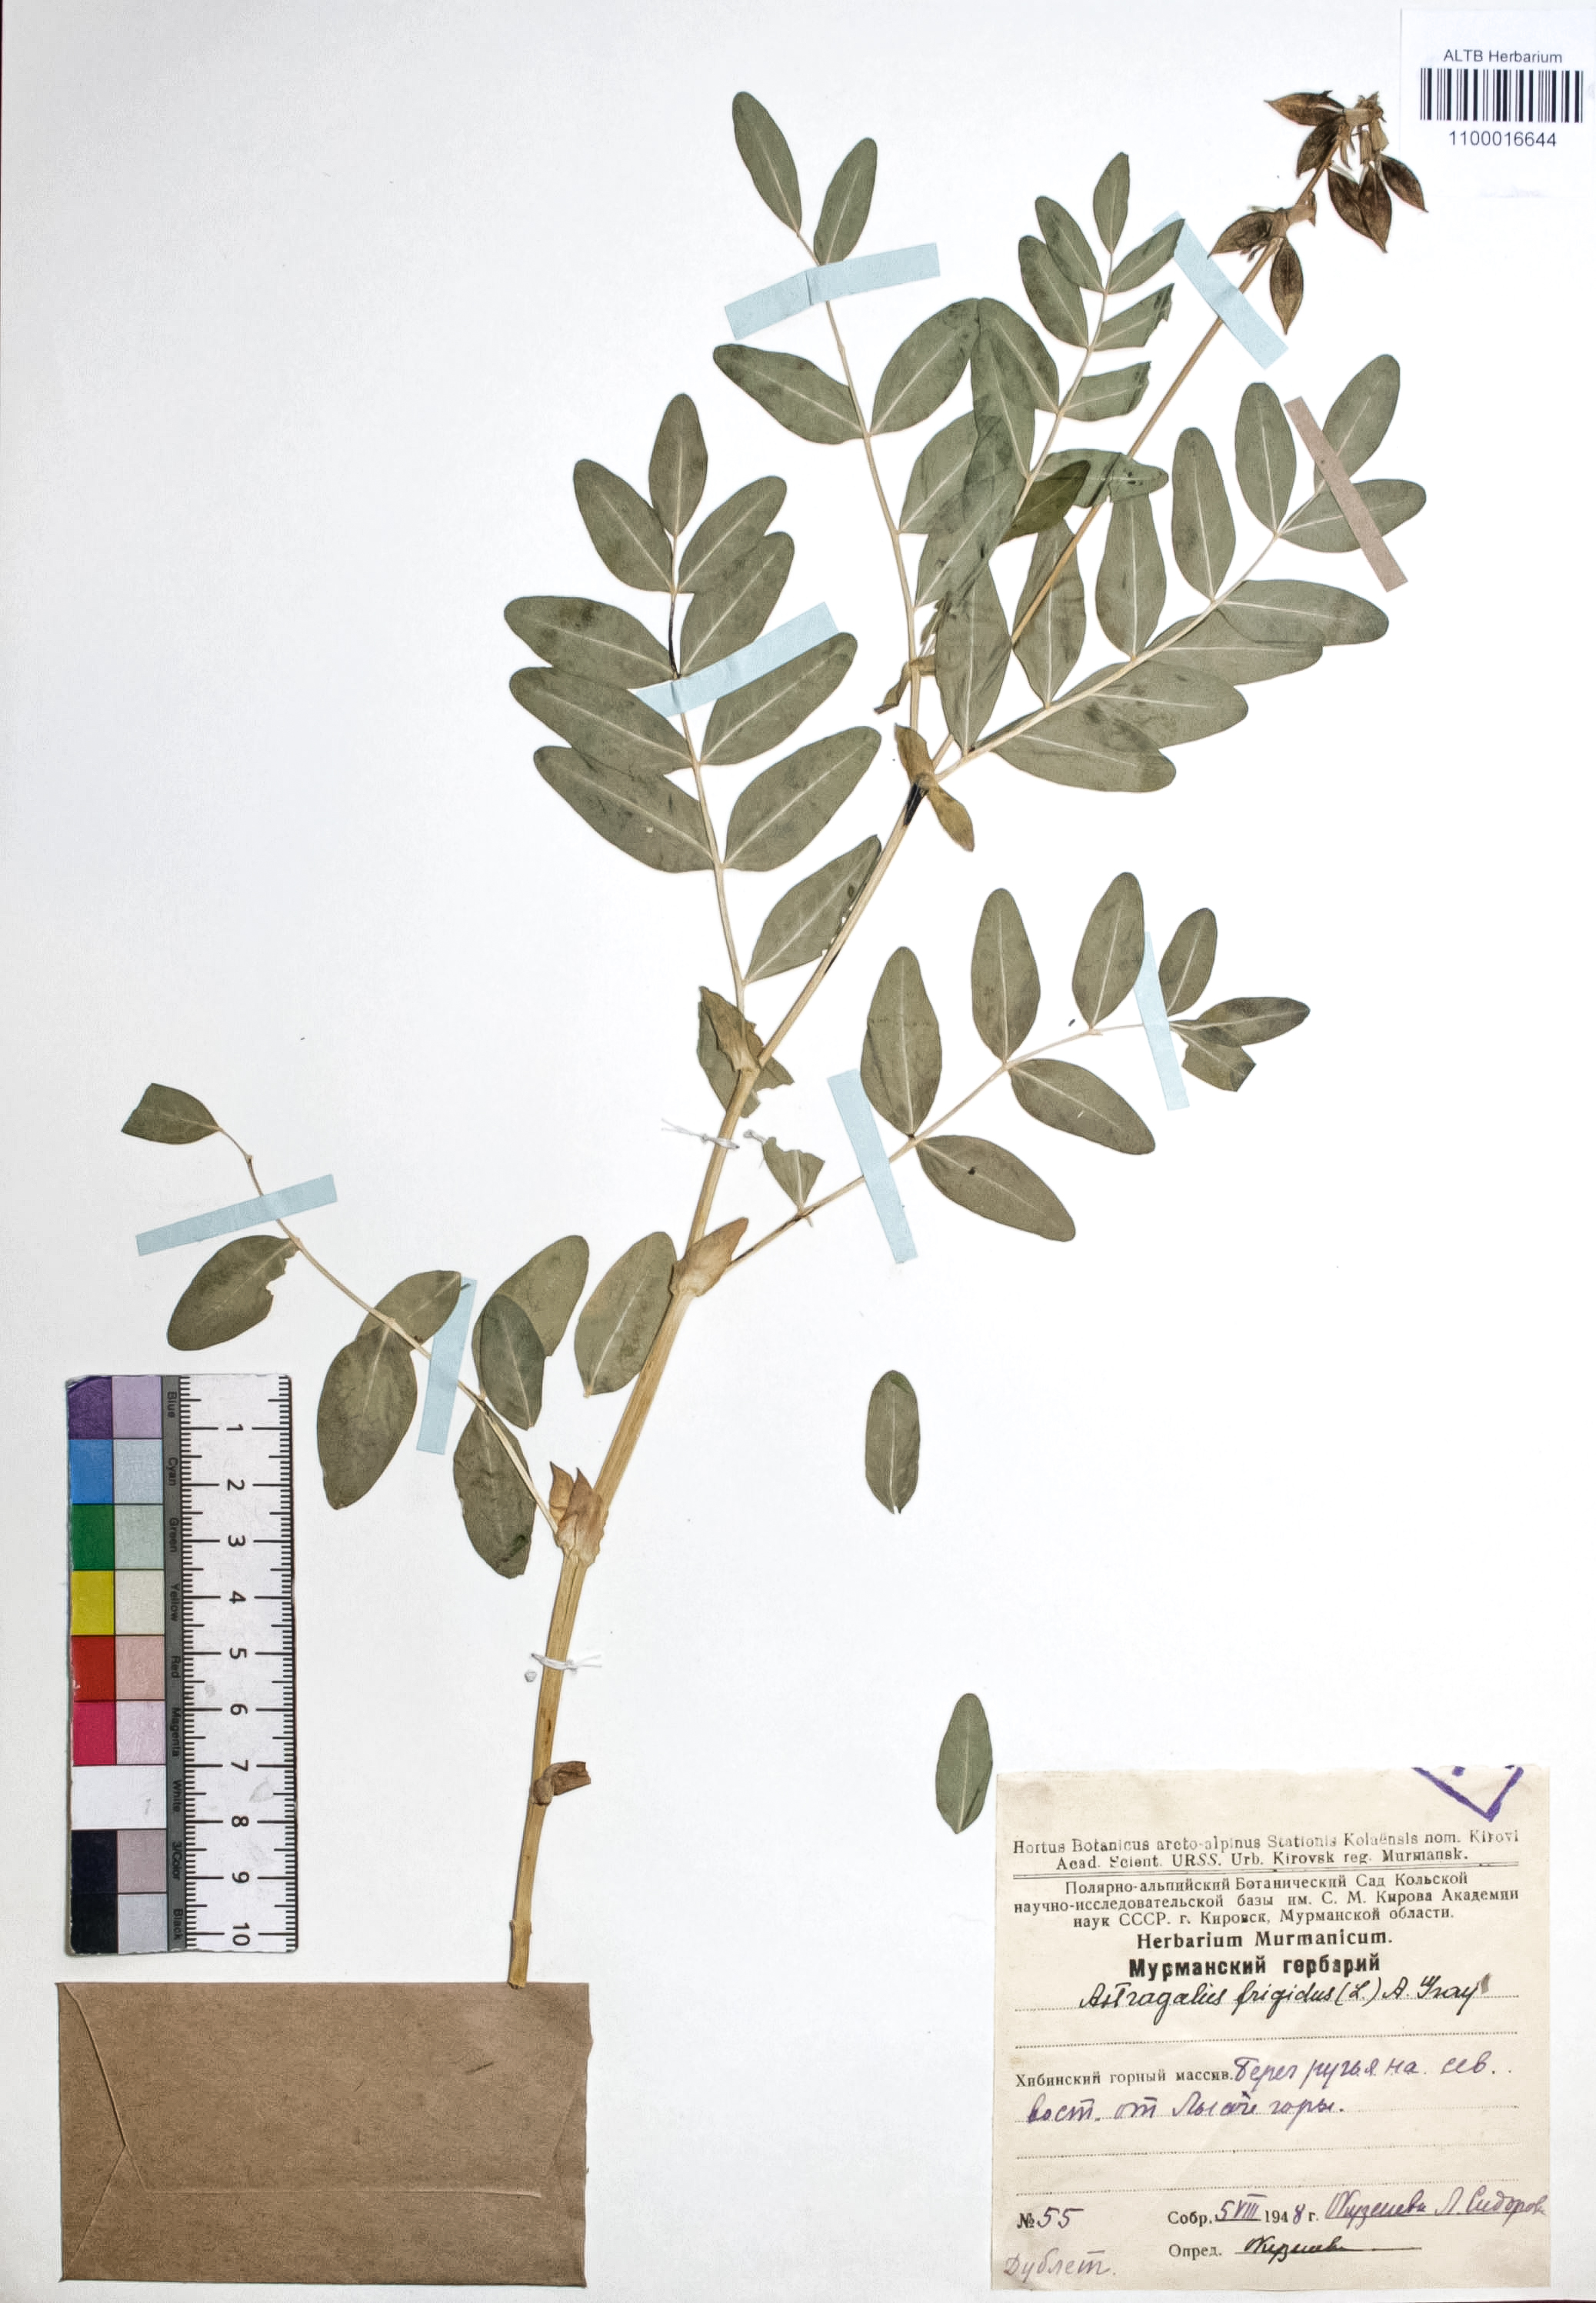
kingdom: Plantae
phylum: Tracheophyta
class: Magnoliopsida
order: Fabales
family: Fabaceae
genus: Astragalus
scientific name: Astragalus frigidus
